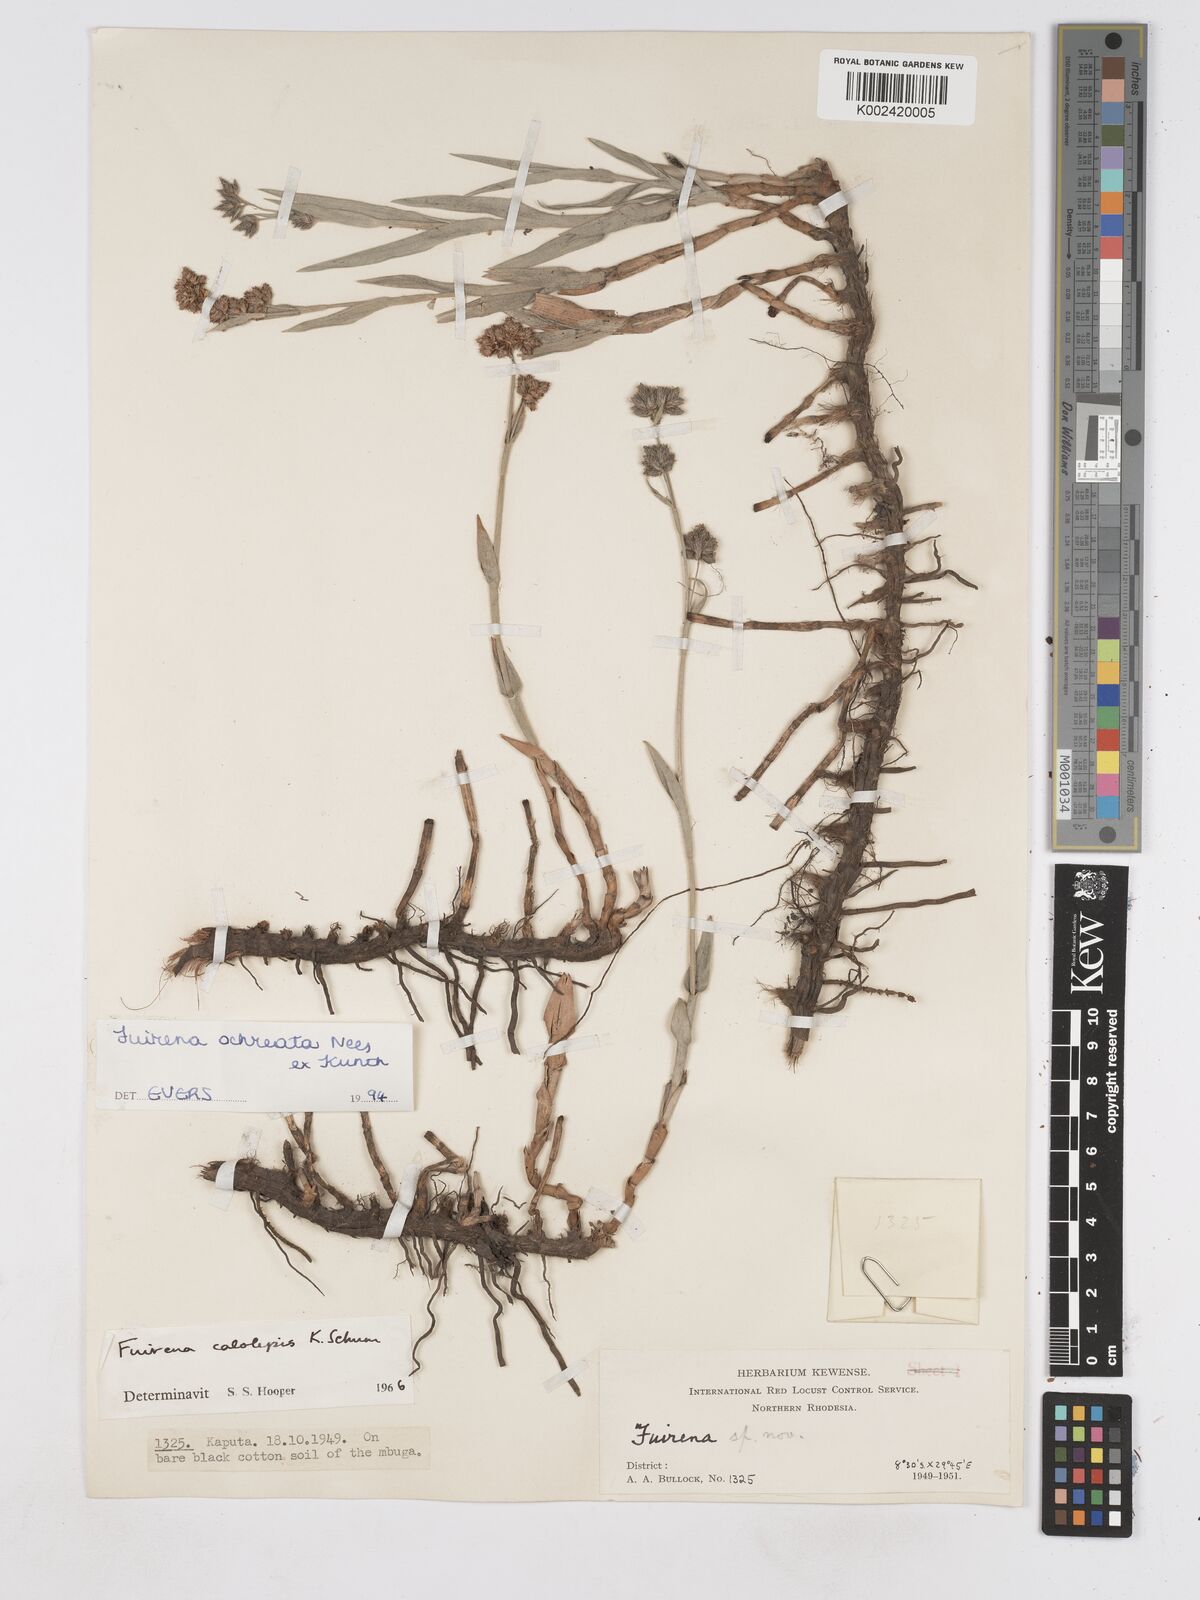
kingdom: Plantae
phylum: Tracheophyta
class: Liliopsida
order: Poales
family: Cyperaceae
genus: Fuirena
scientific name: Fuirena ochreata
